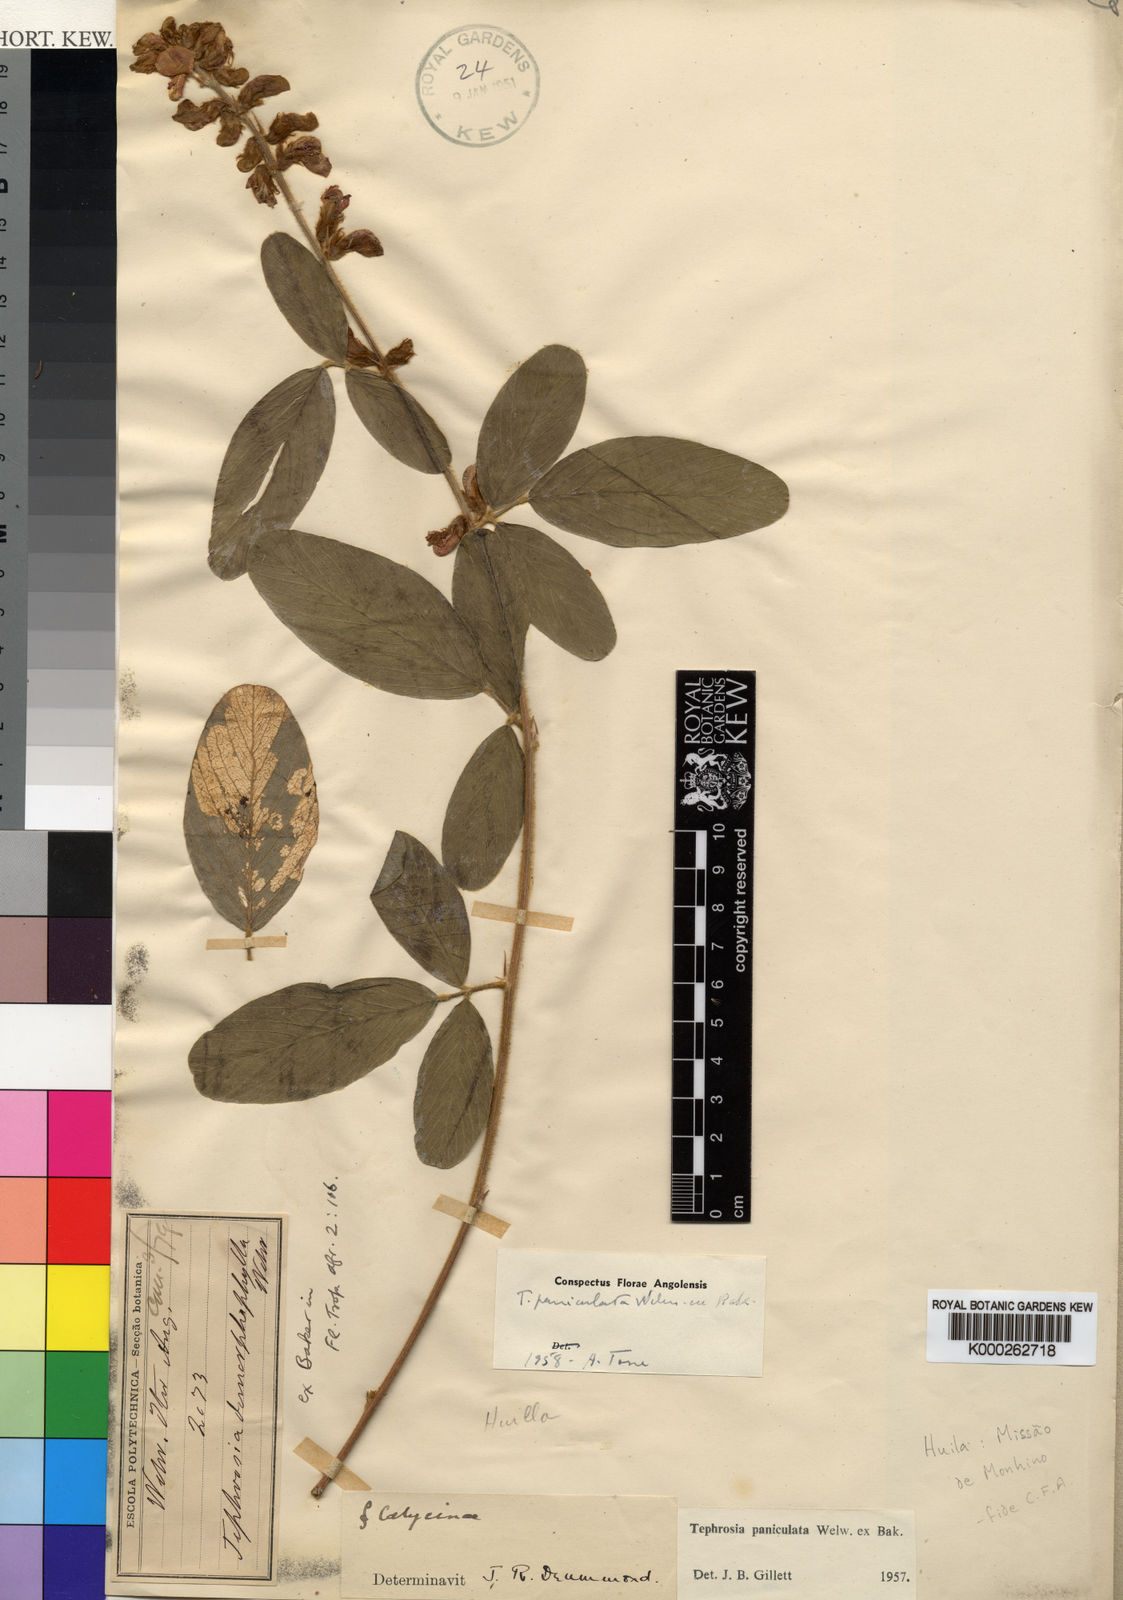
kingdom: Plantae
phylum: Tracheophyta
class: Magnoliopsida
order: Fabales
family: Fabaceae
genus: Tephrosia
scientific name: Tephrosia paniculata
